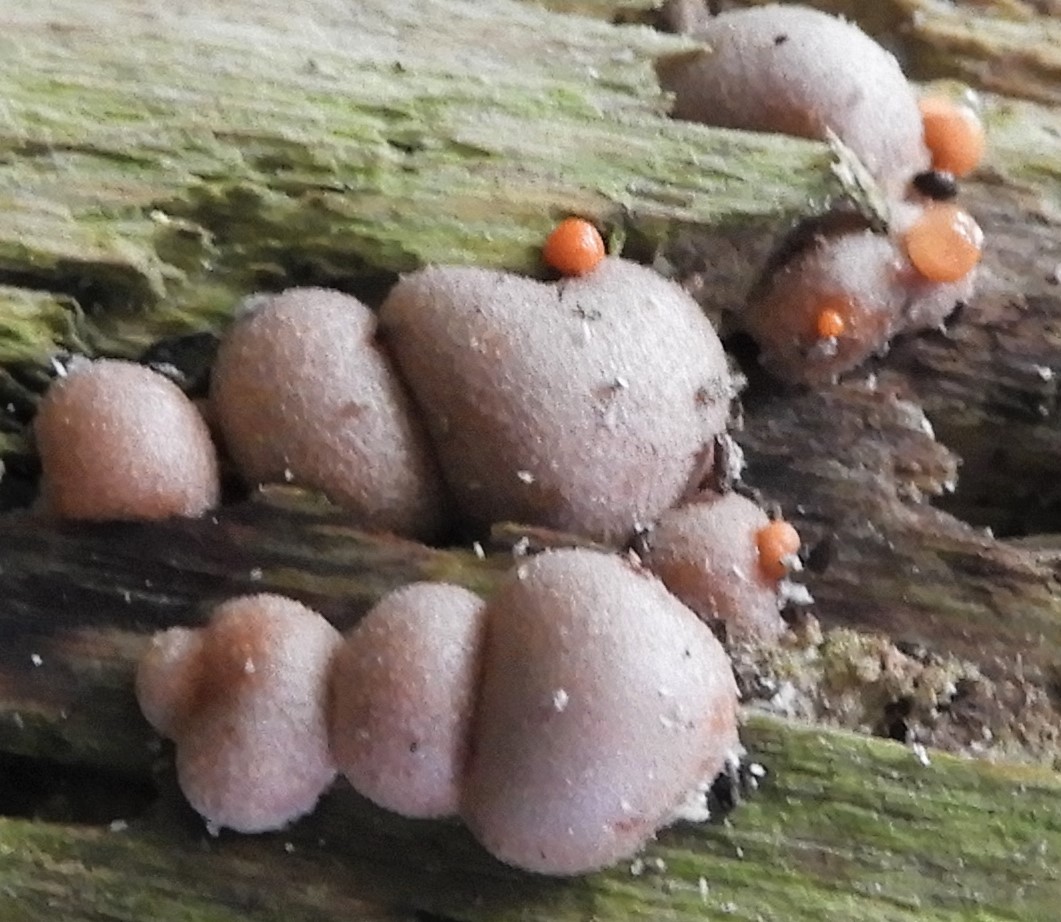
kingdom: Protozoa
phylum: Mycetozoa
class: Myxomycetes
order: Cribrariales
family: Tubiferaceae
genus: Lycogala
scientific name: Lycogala epidendrum
